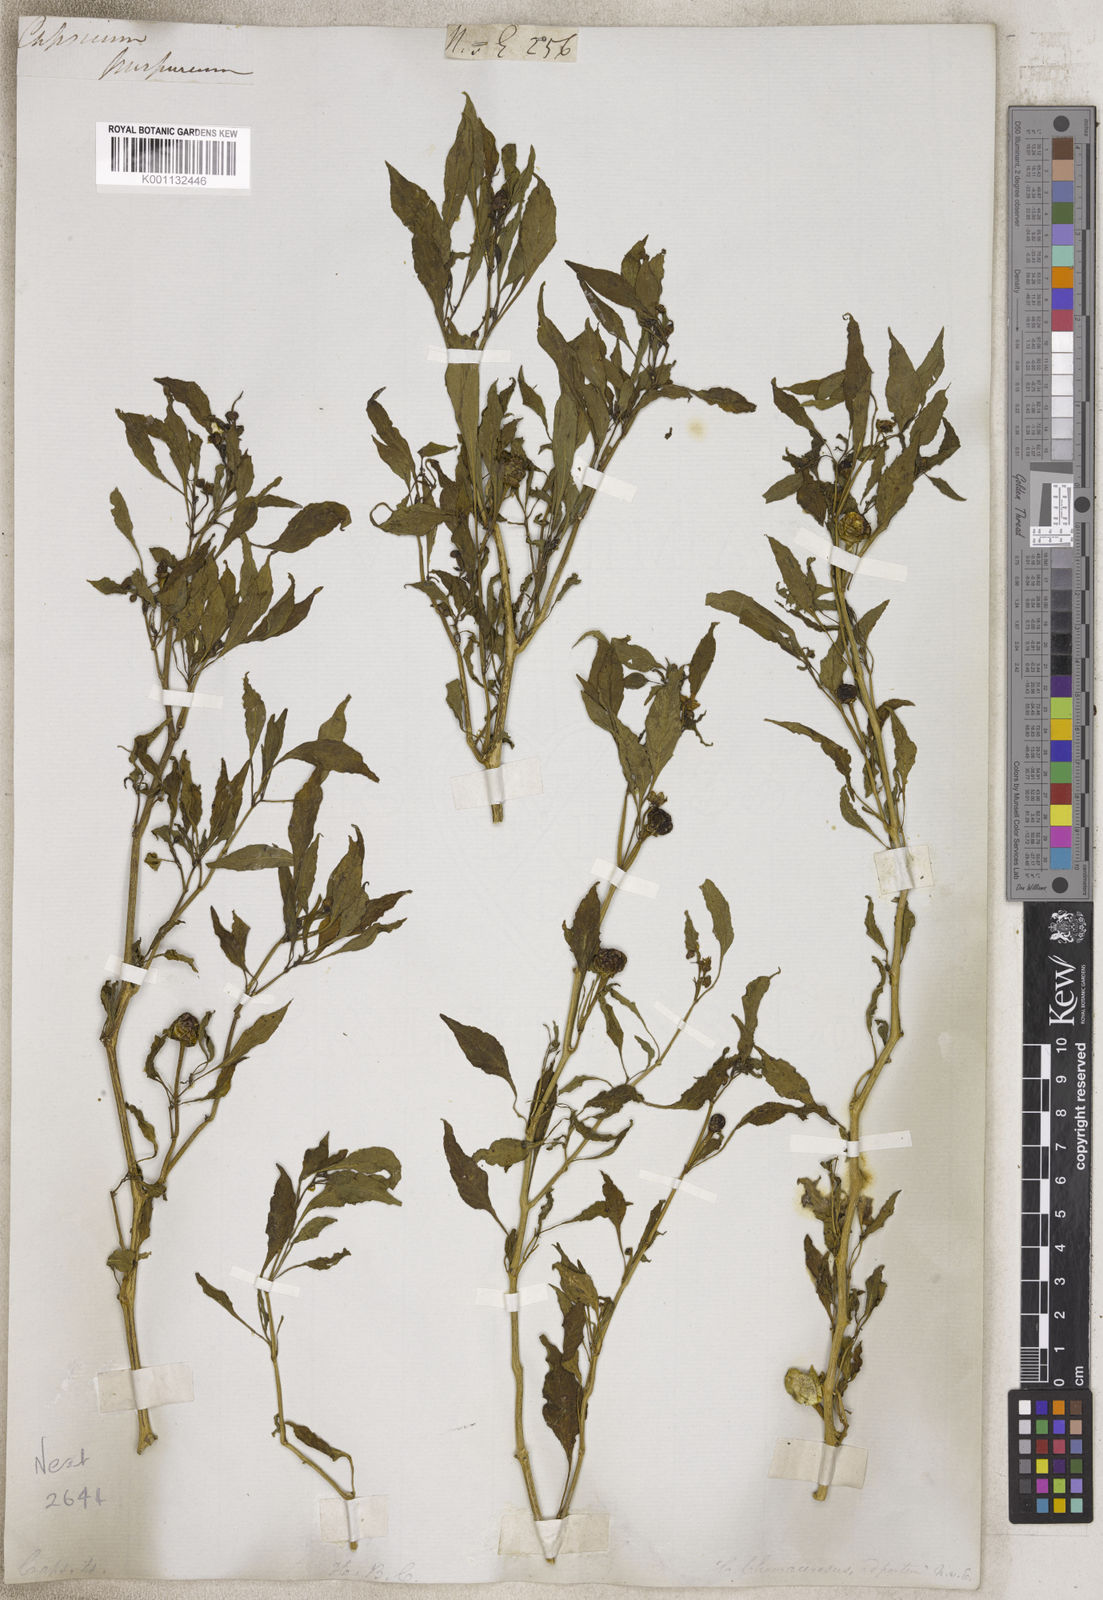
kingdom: Plantae
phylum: Tracheophyta
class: Magnoliopsida
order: Solanales
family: Solanaceae
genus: Capsicum
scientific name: Capsicum
